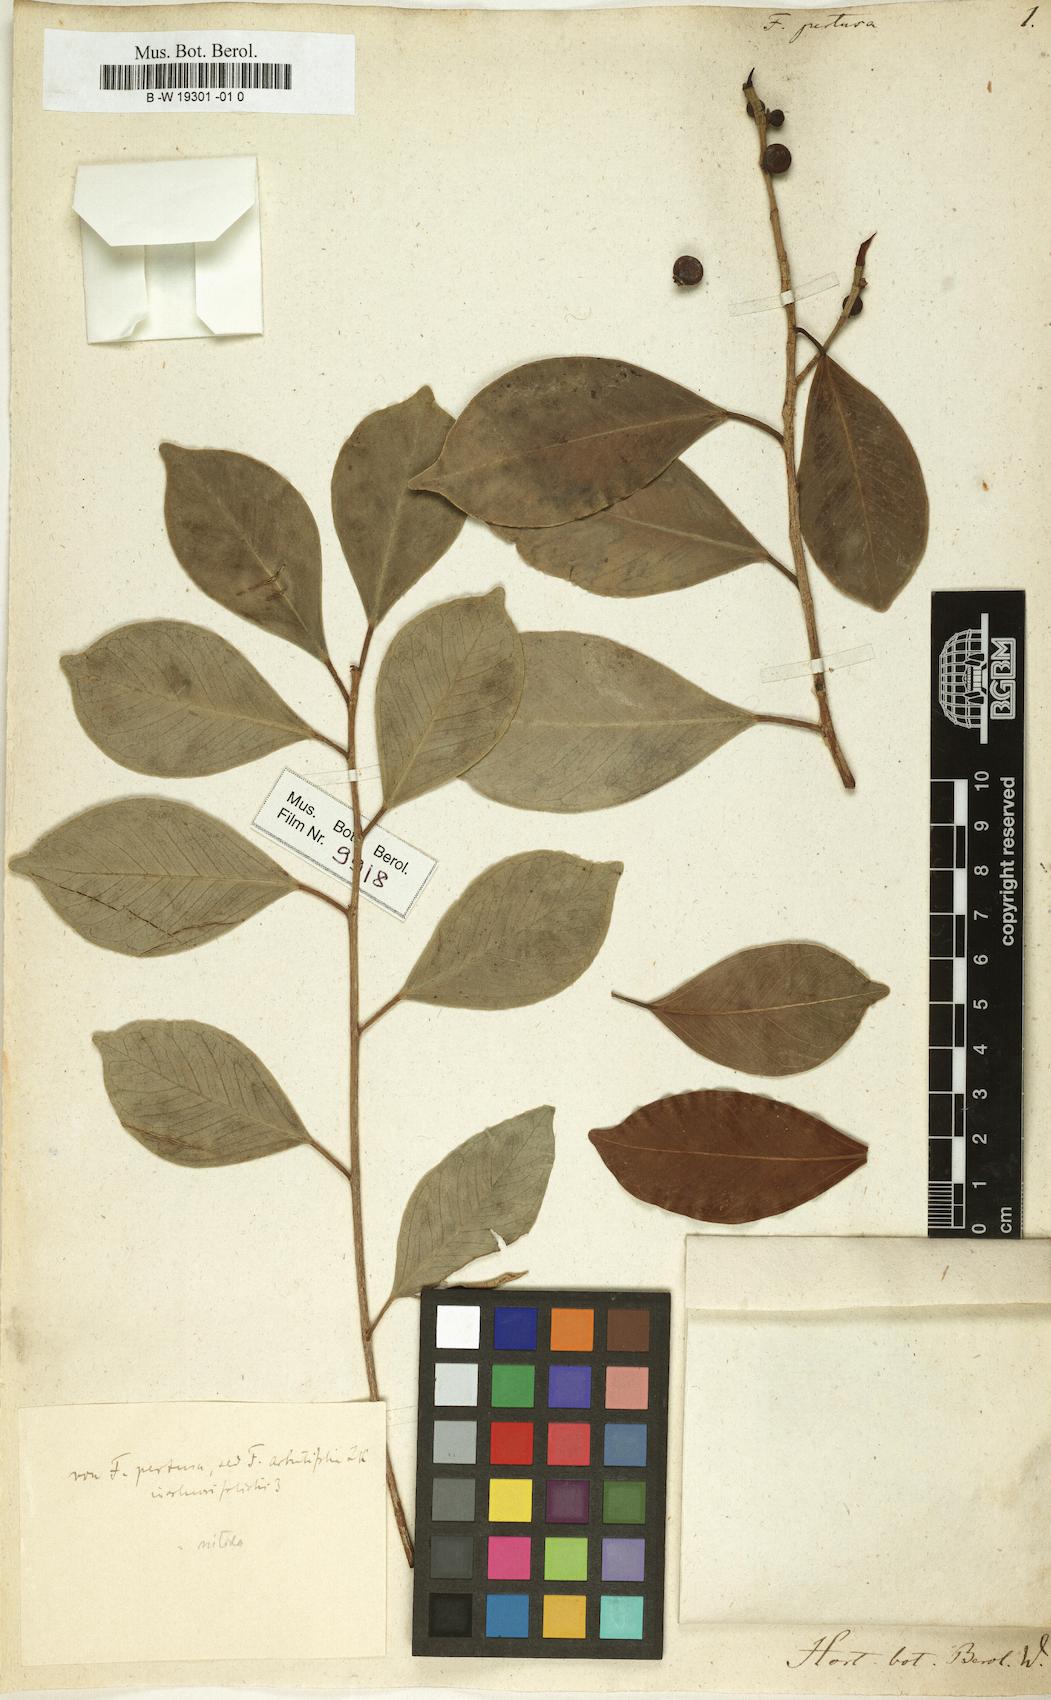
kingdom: Plantae
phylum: Tracheophyta
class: Magnoliopsida
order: Rosales
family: Moraceae
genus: Ficus
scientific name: Ficus pertusa
